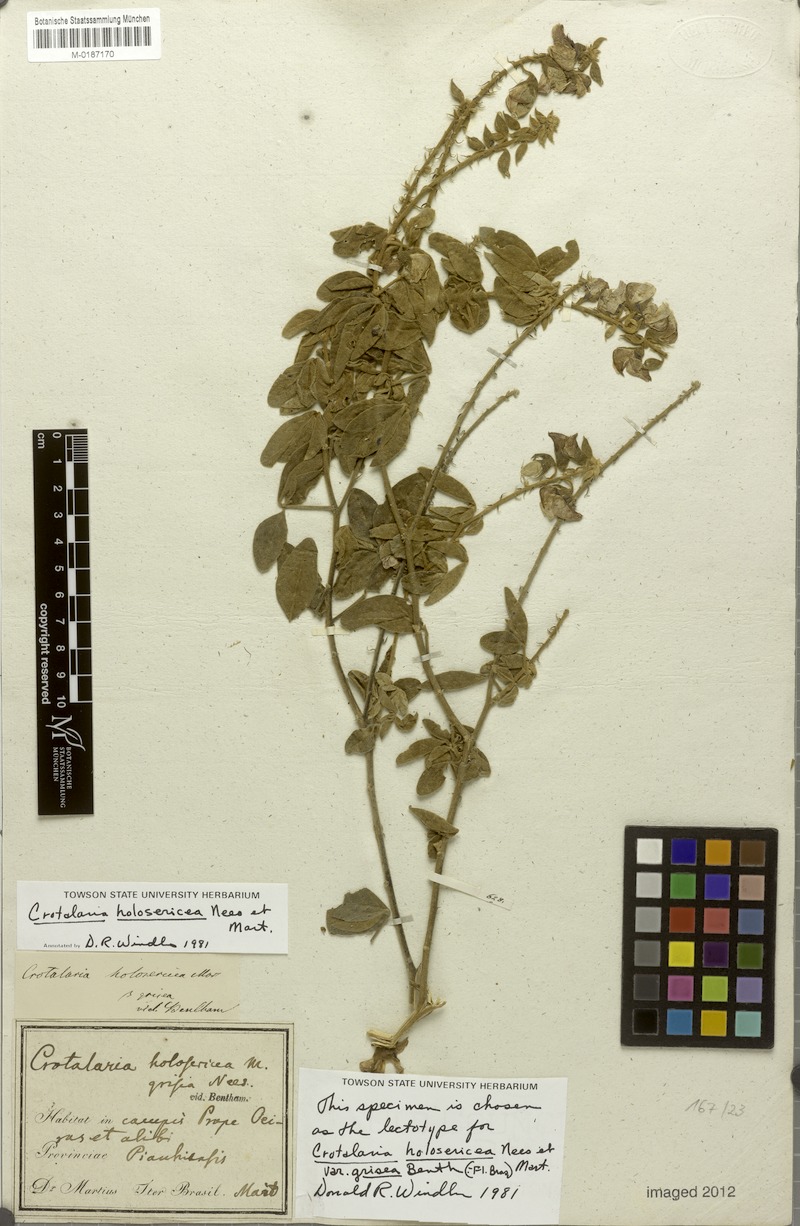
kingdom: Plantae
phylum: Tracheophyta
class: Magnoliopsida
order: Fabales
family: Fabaceae
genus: Crotalaria
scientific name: Crotalaria holosericea
